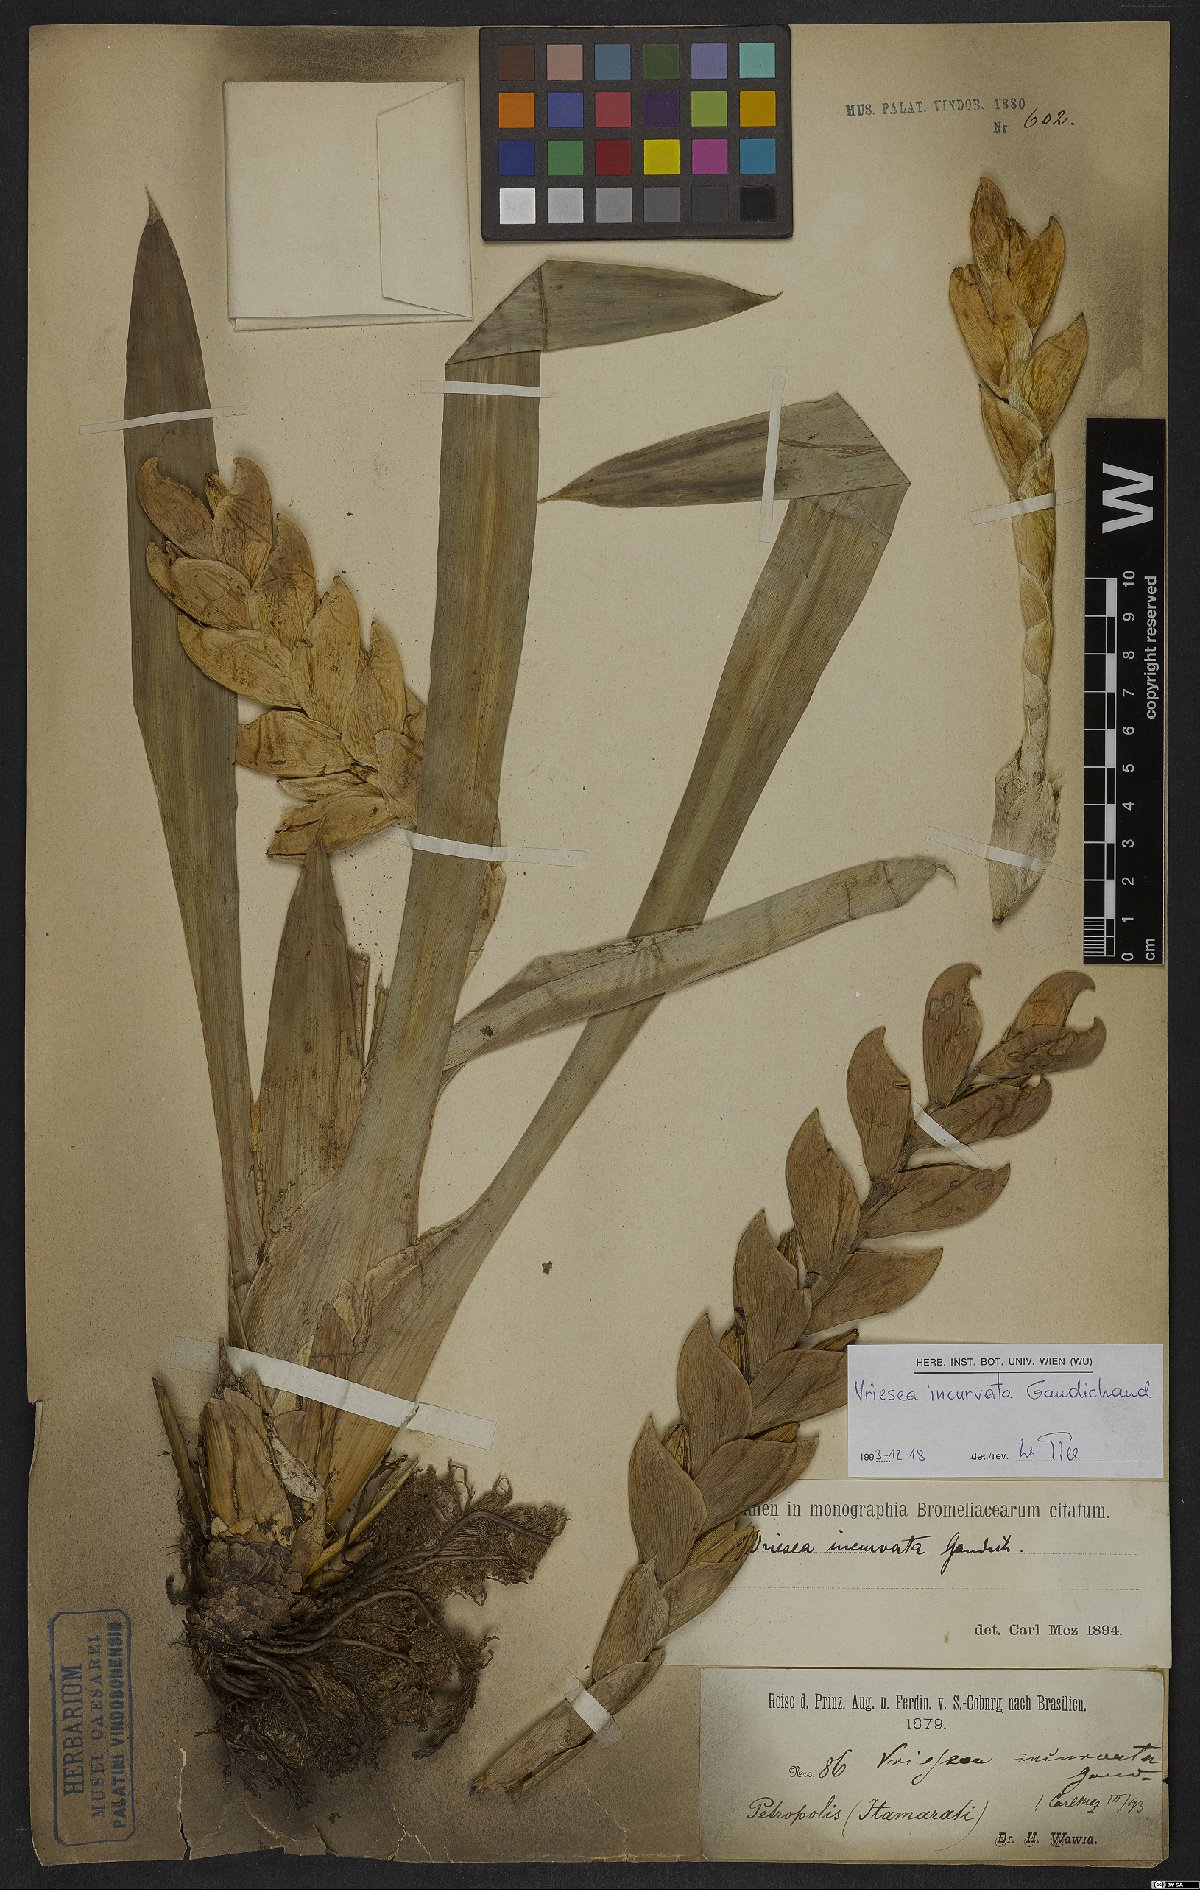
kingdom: Plantae
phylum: Tracheophyta
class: Liliopsida
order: Poales
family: Bromeliaceae
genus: Vriesea
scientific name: Vriesea incurvata
